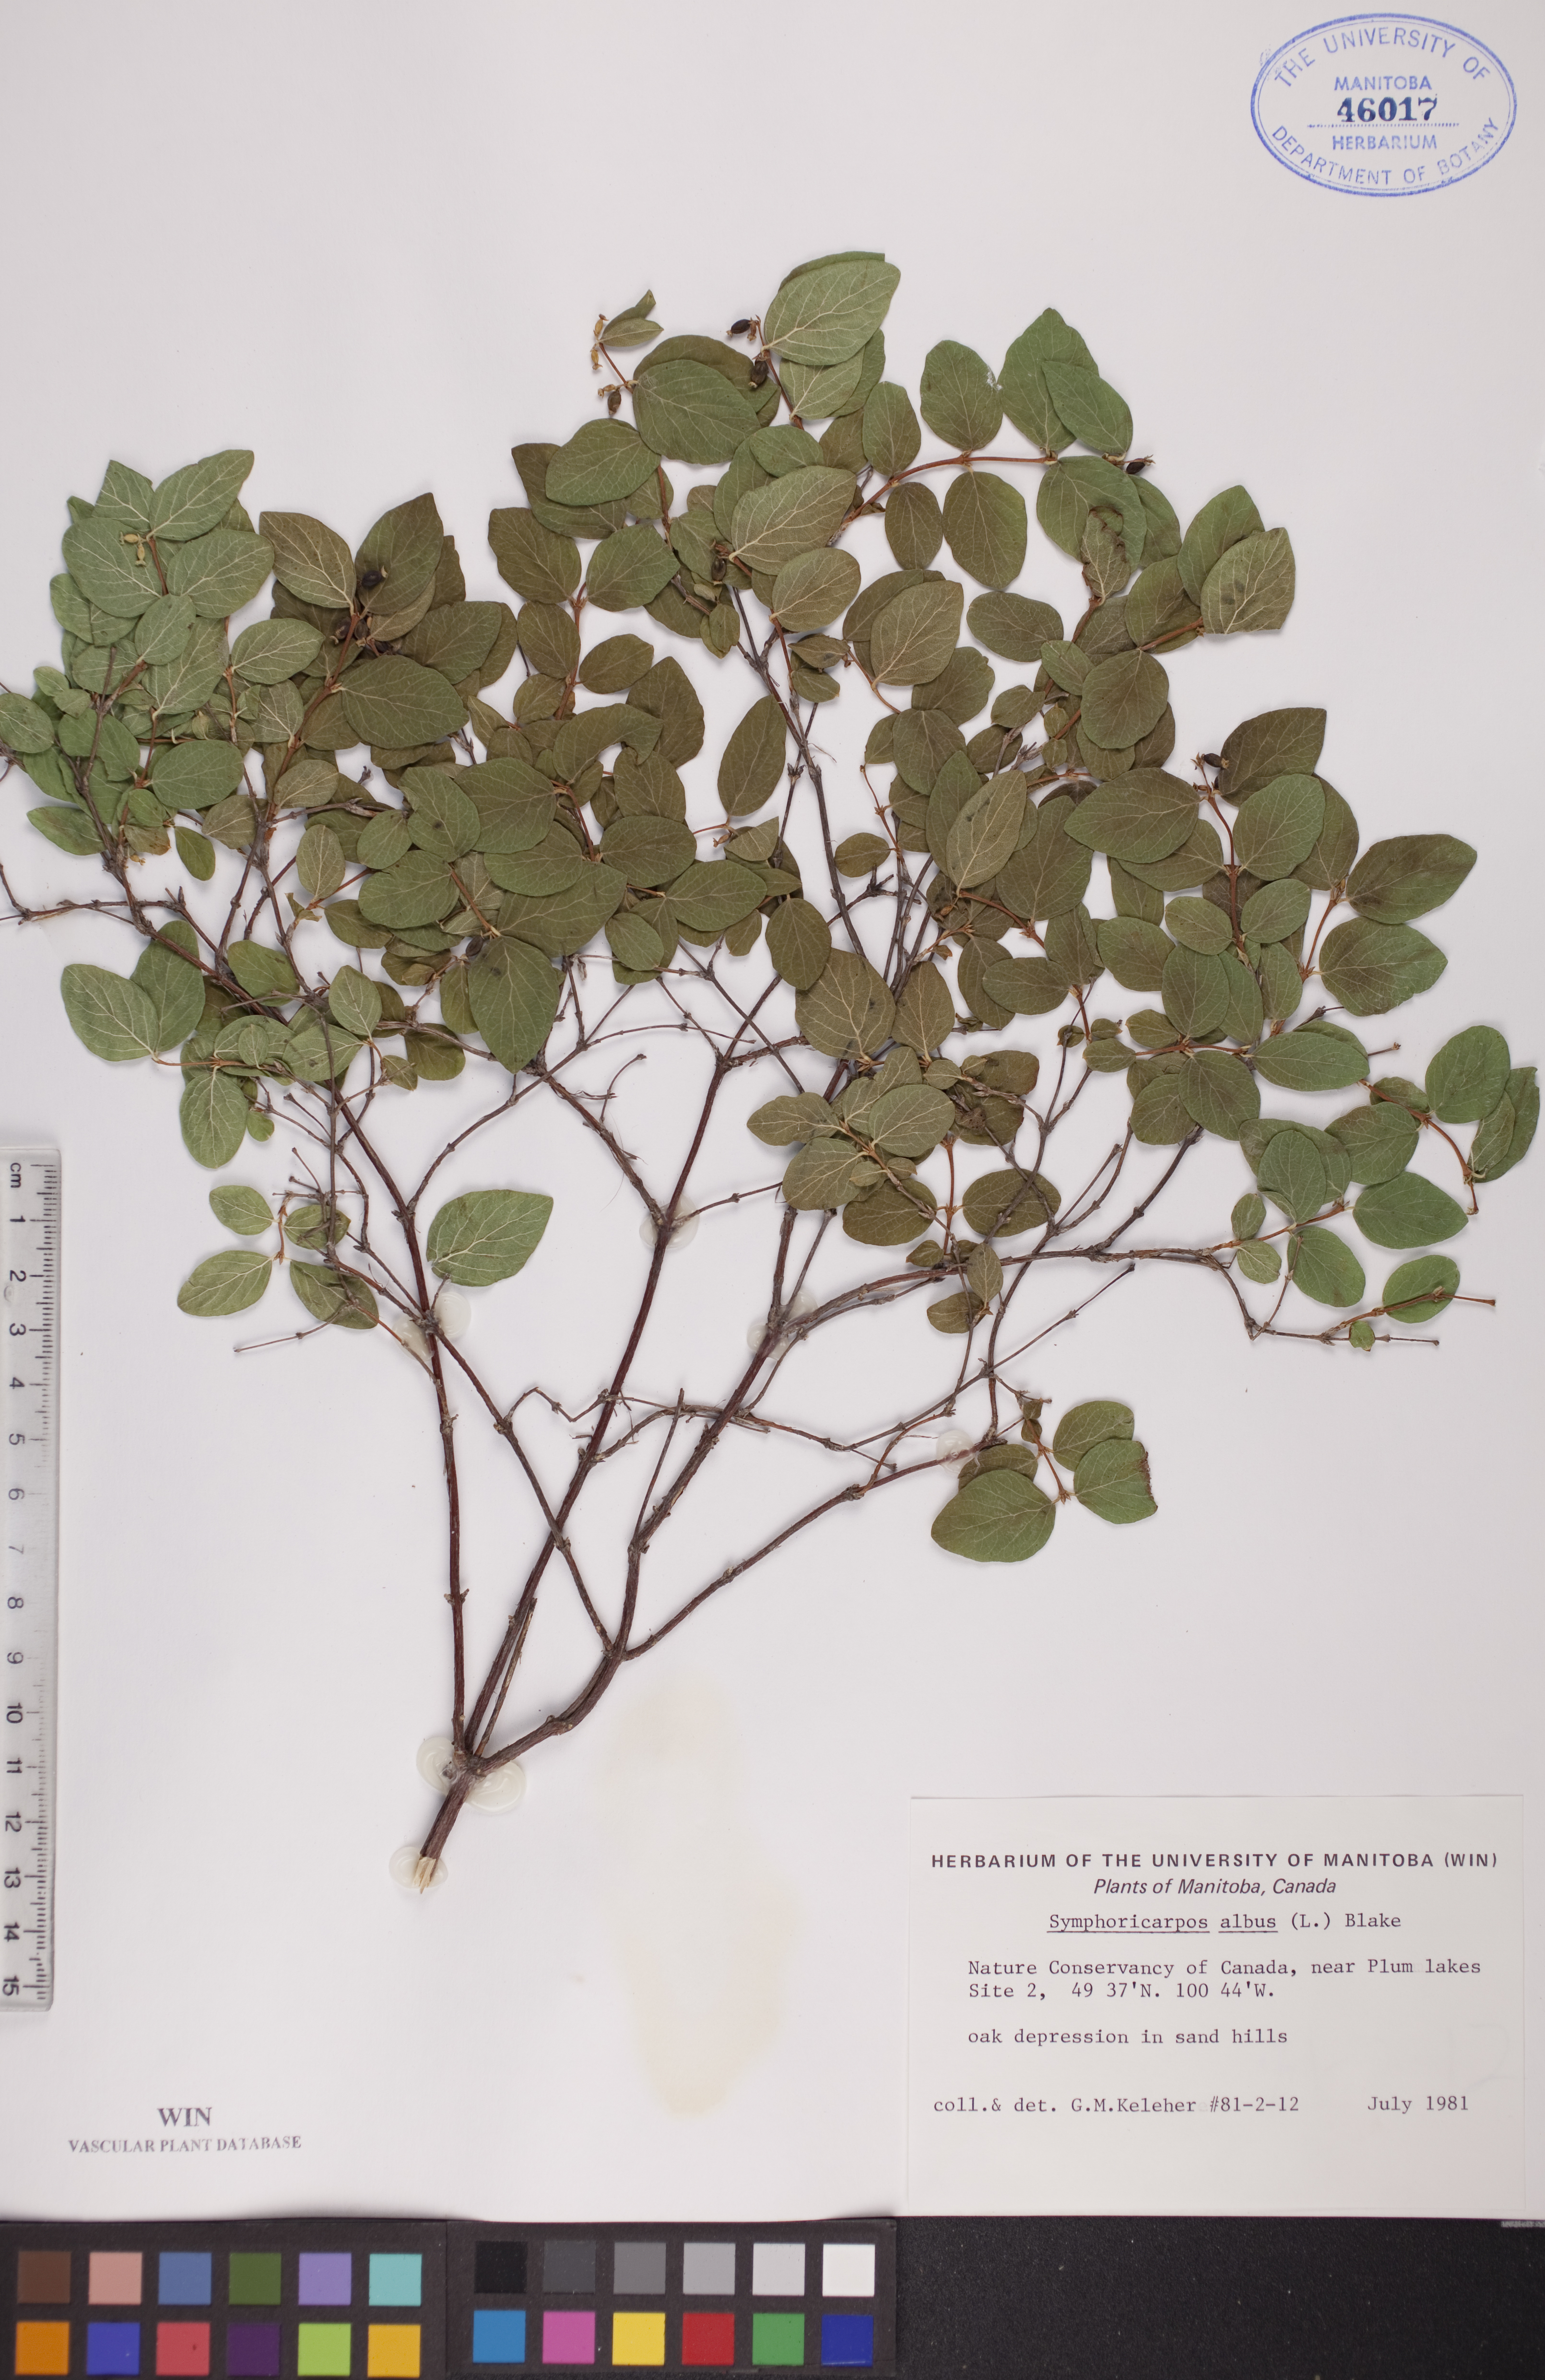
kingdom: Plantae
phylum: Tracheophyta
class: Magnoliopsida
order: Dipsacales
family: Caprifoliaceae
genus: Symphoricarpos
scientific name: Symphoricarpos albus
